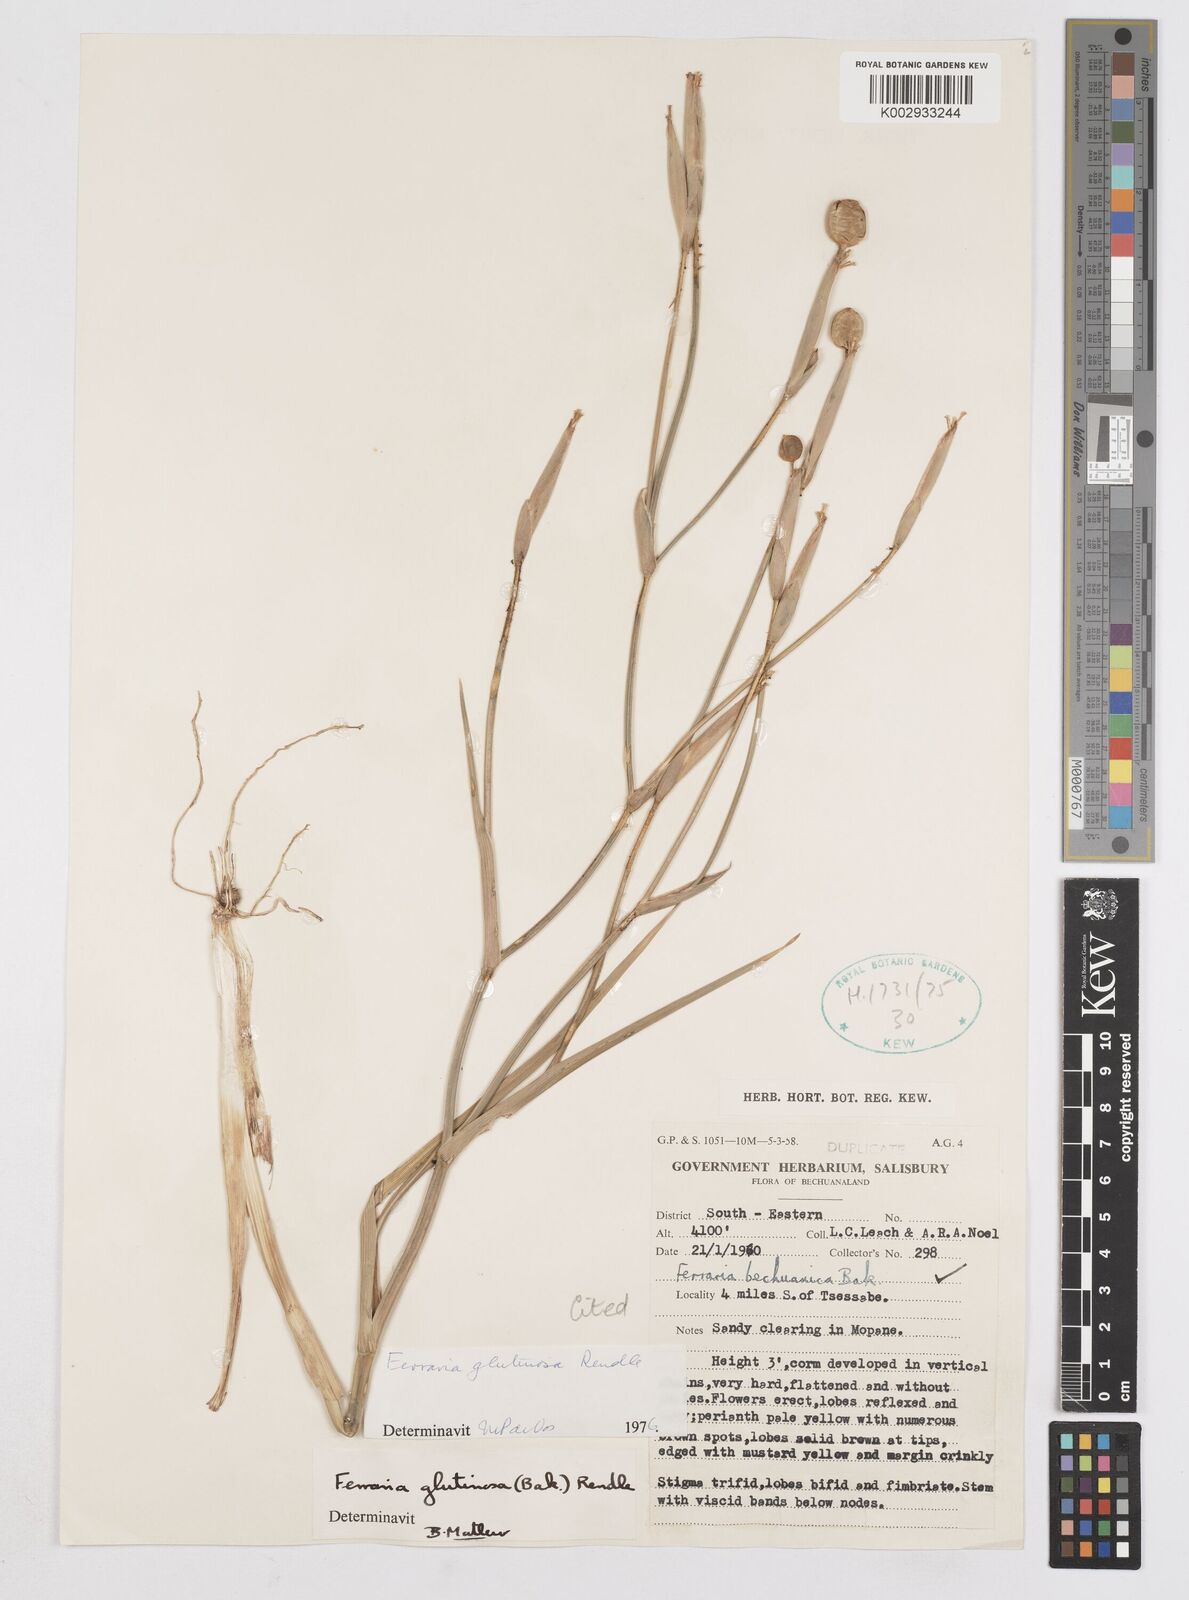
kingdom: Plantae
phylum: Tracheophyta
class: Liliopsida
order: Asparagales
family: Iridaceae
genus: Ferraria
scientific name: Ferraria glutinosa
